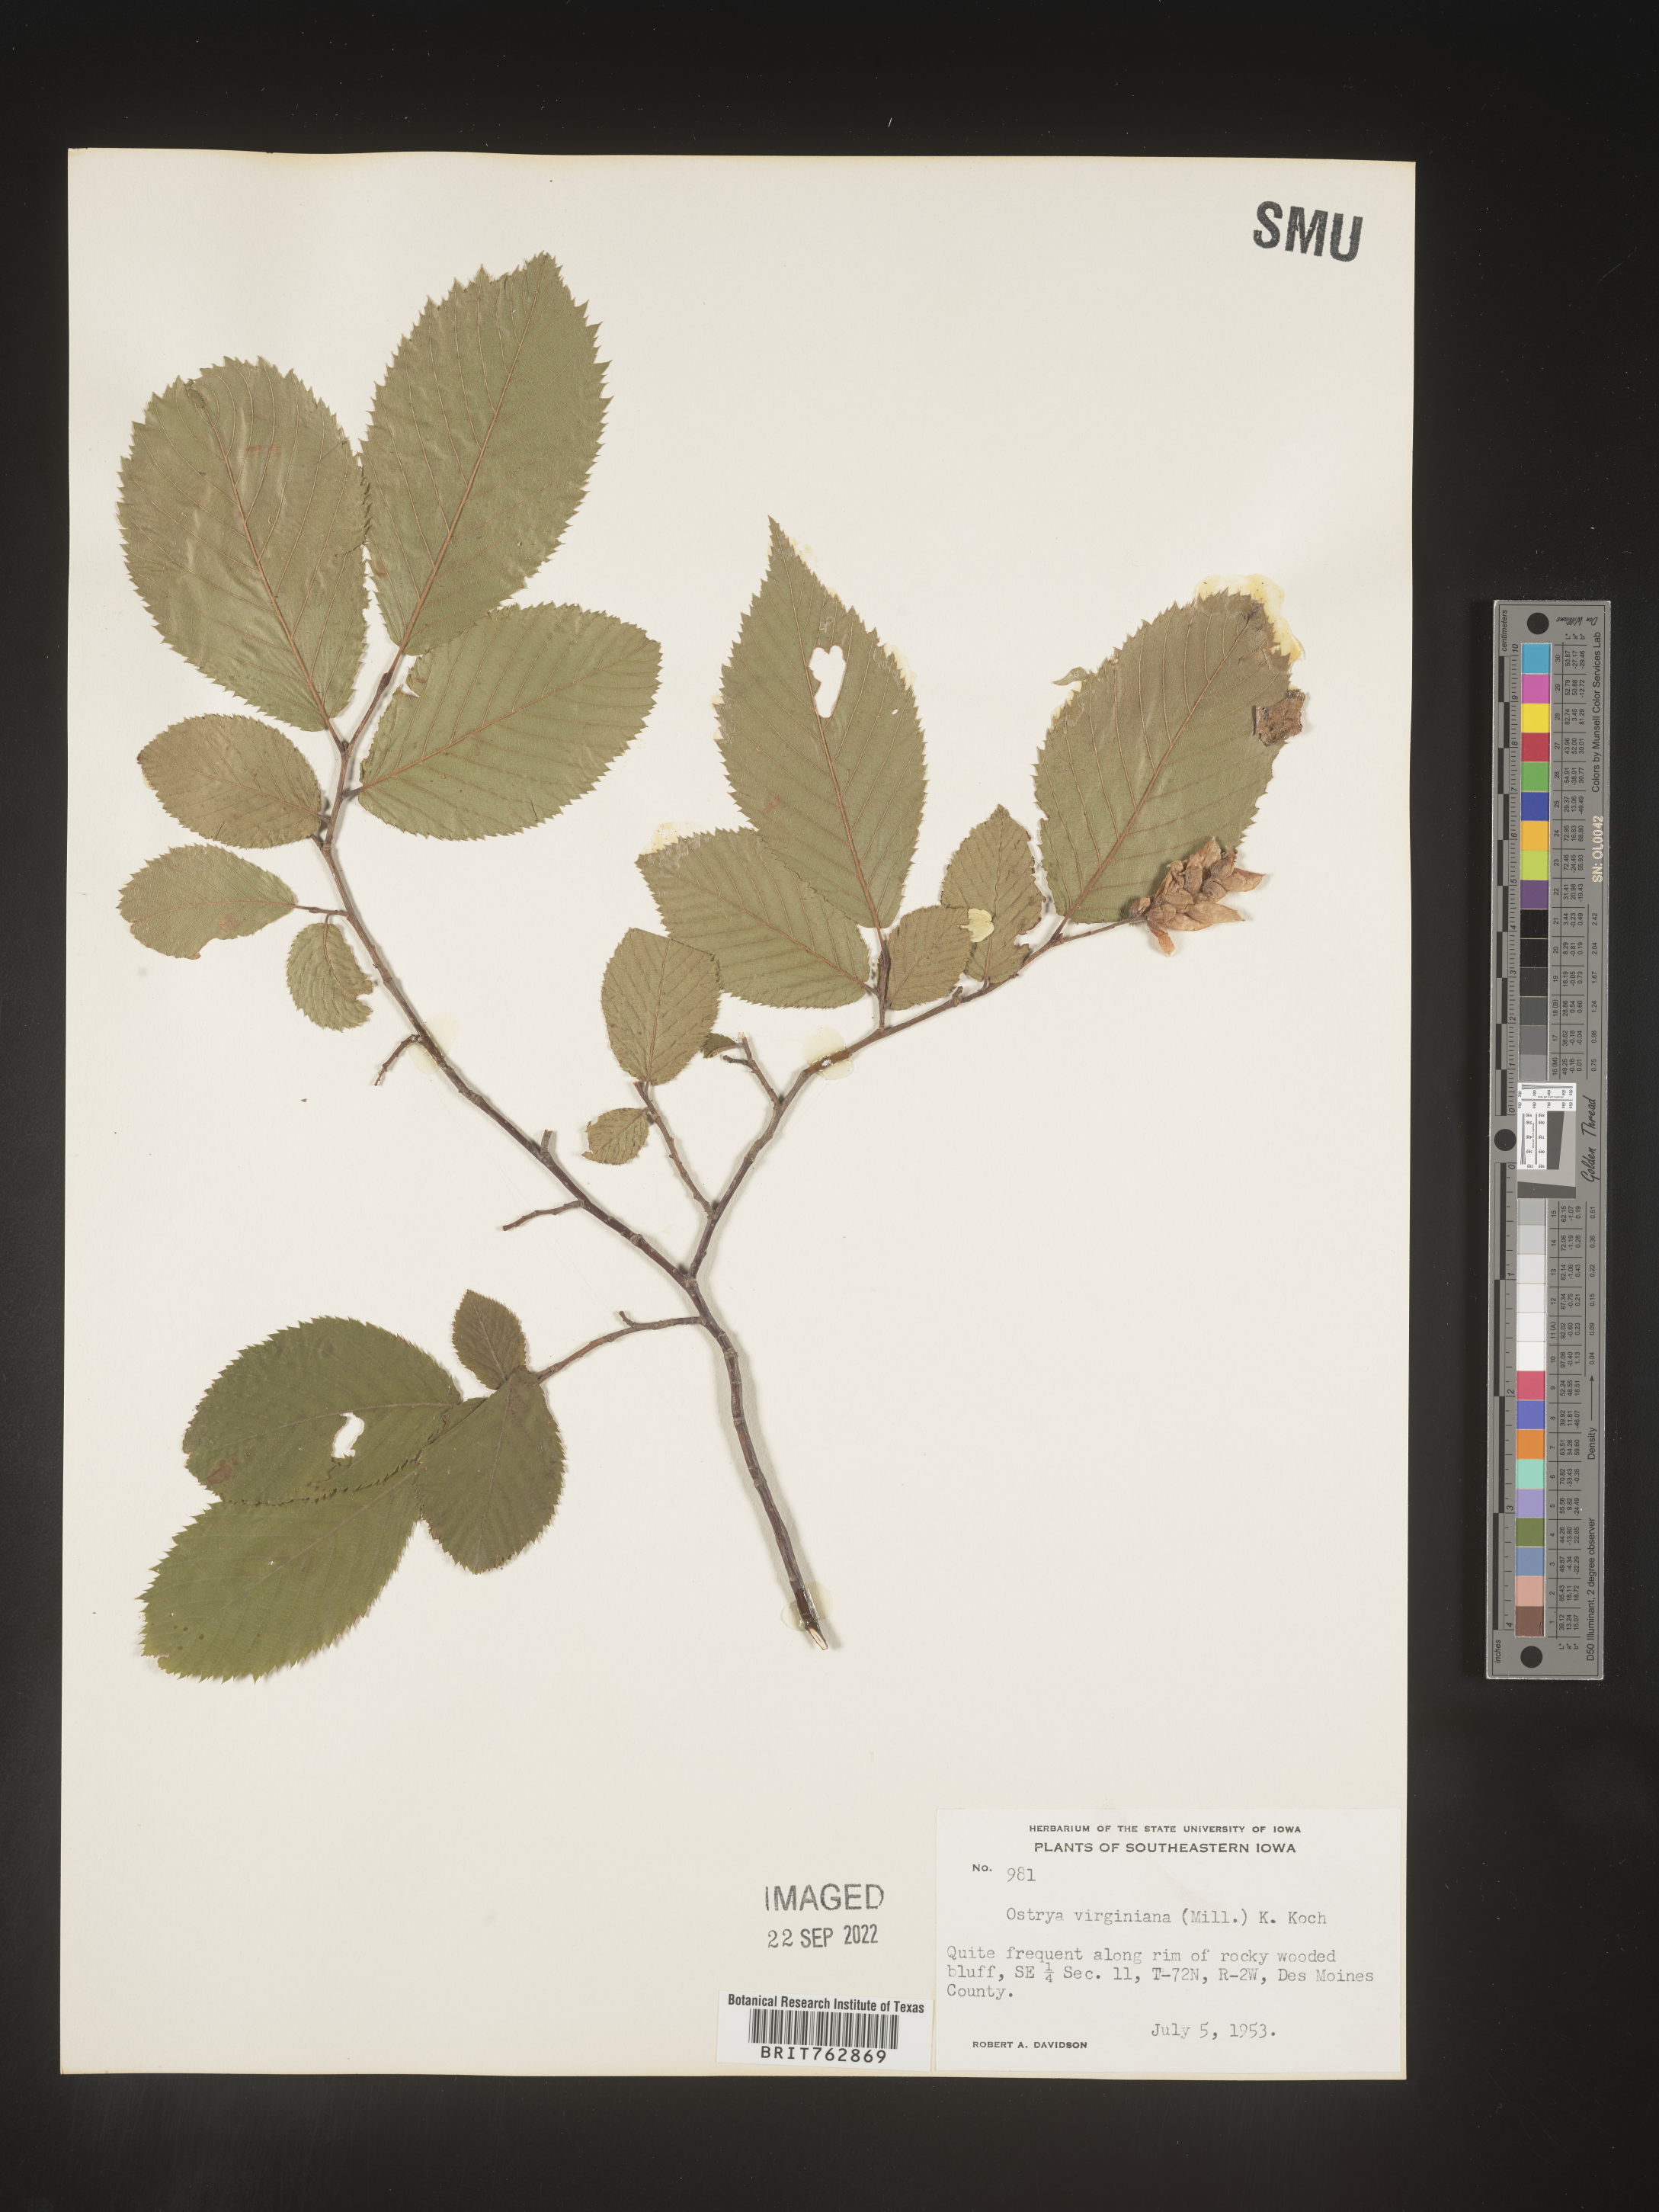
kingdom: Plantae
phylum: Tracheophyta
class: Magnoliopsida
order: Fagales
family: Betulaceae
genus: Ostrya
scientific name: Ostrya virginiana
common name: Ironwood
